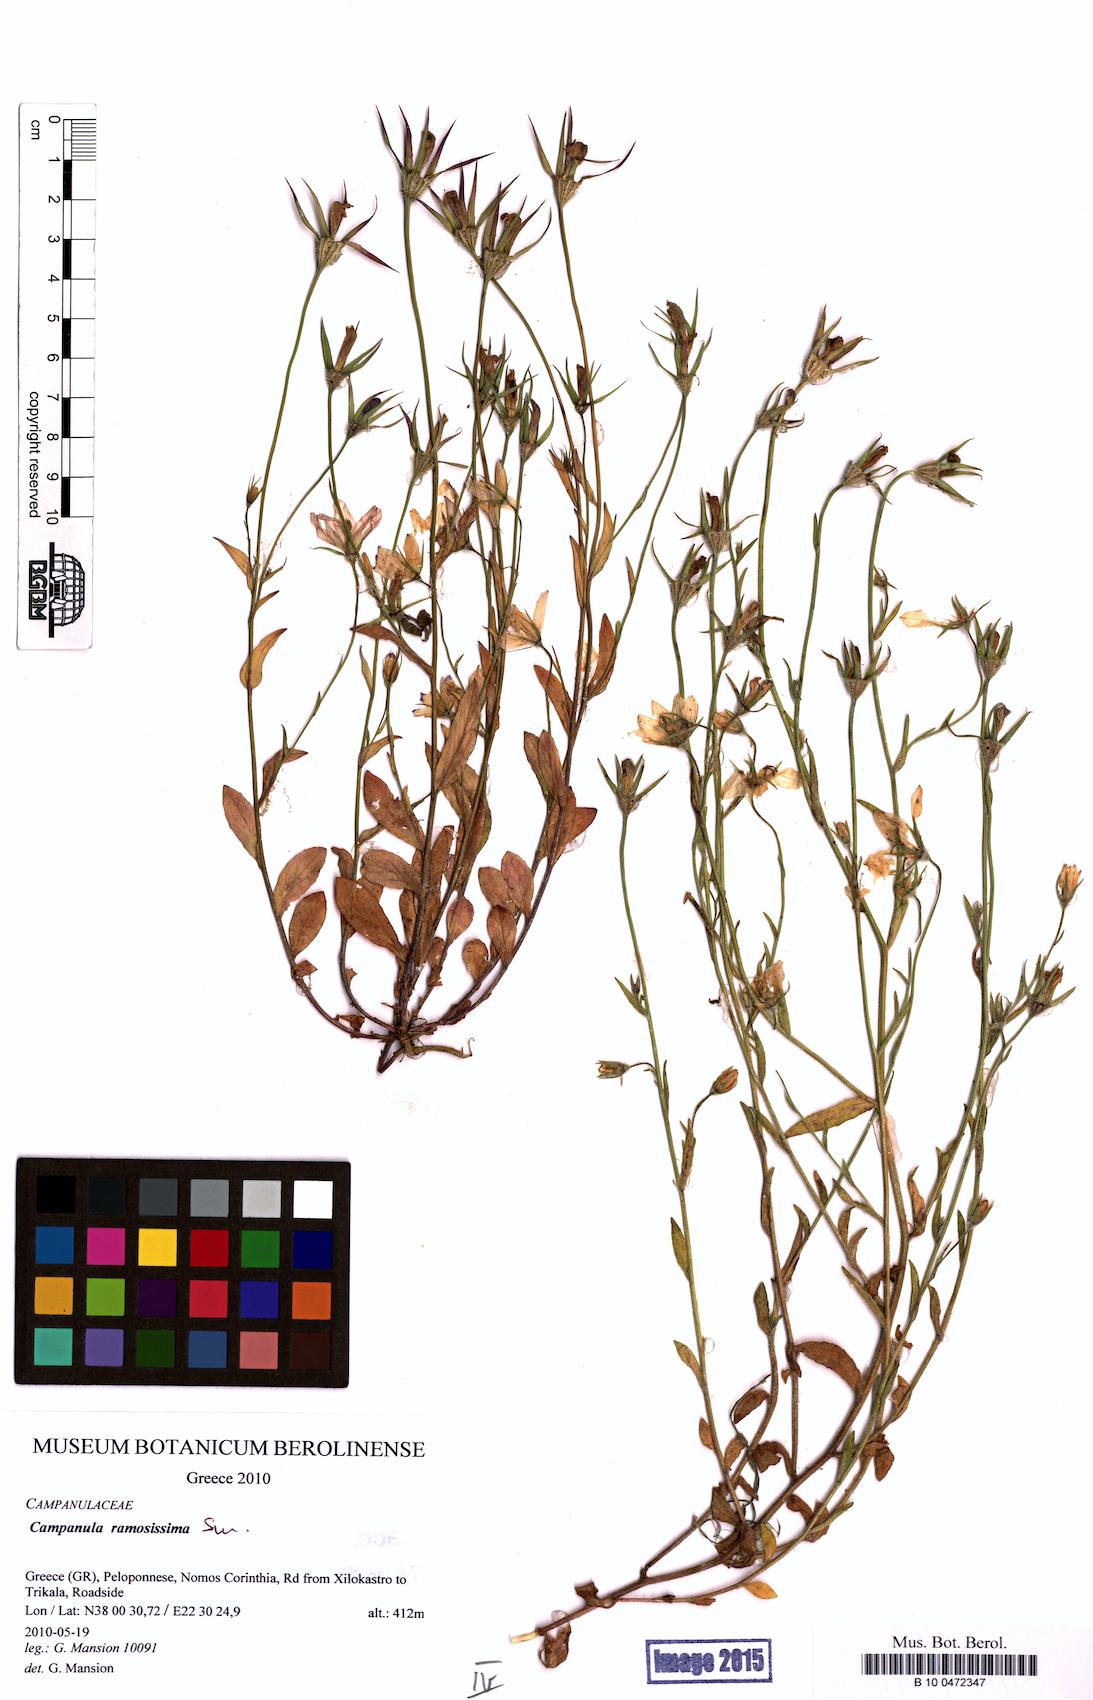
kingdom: Plantae
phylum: Tracheophyta
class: Magnoliopsida
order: Asterales
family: Campanulaceae
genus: Campanula
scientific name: Campanula ramosissima
